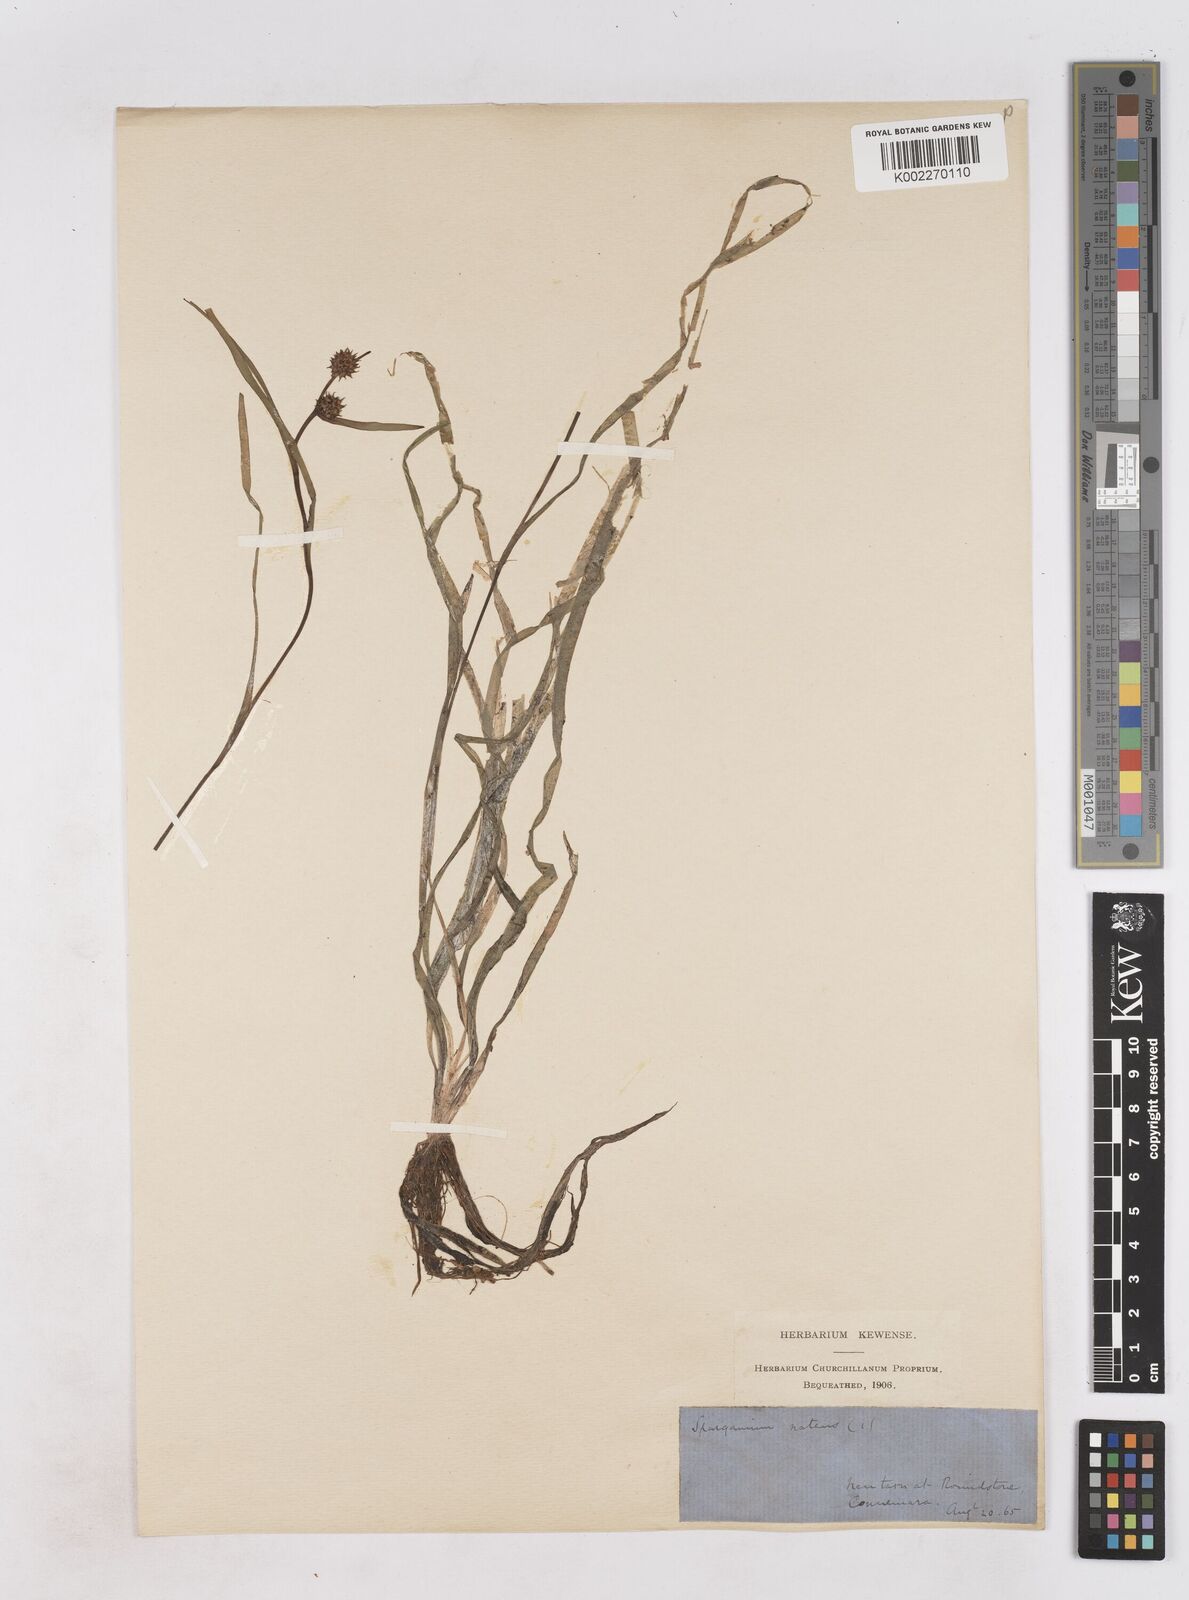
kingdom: Plantae
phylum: Tracheophyta
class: Liliopsida
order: Poales
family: Typhaceae
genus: Sparganium
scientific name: Sparganium natans
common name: Least bur-reed
